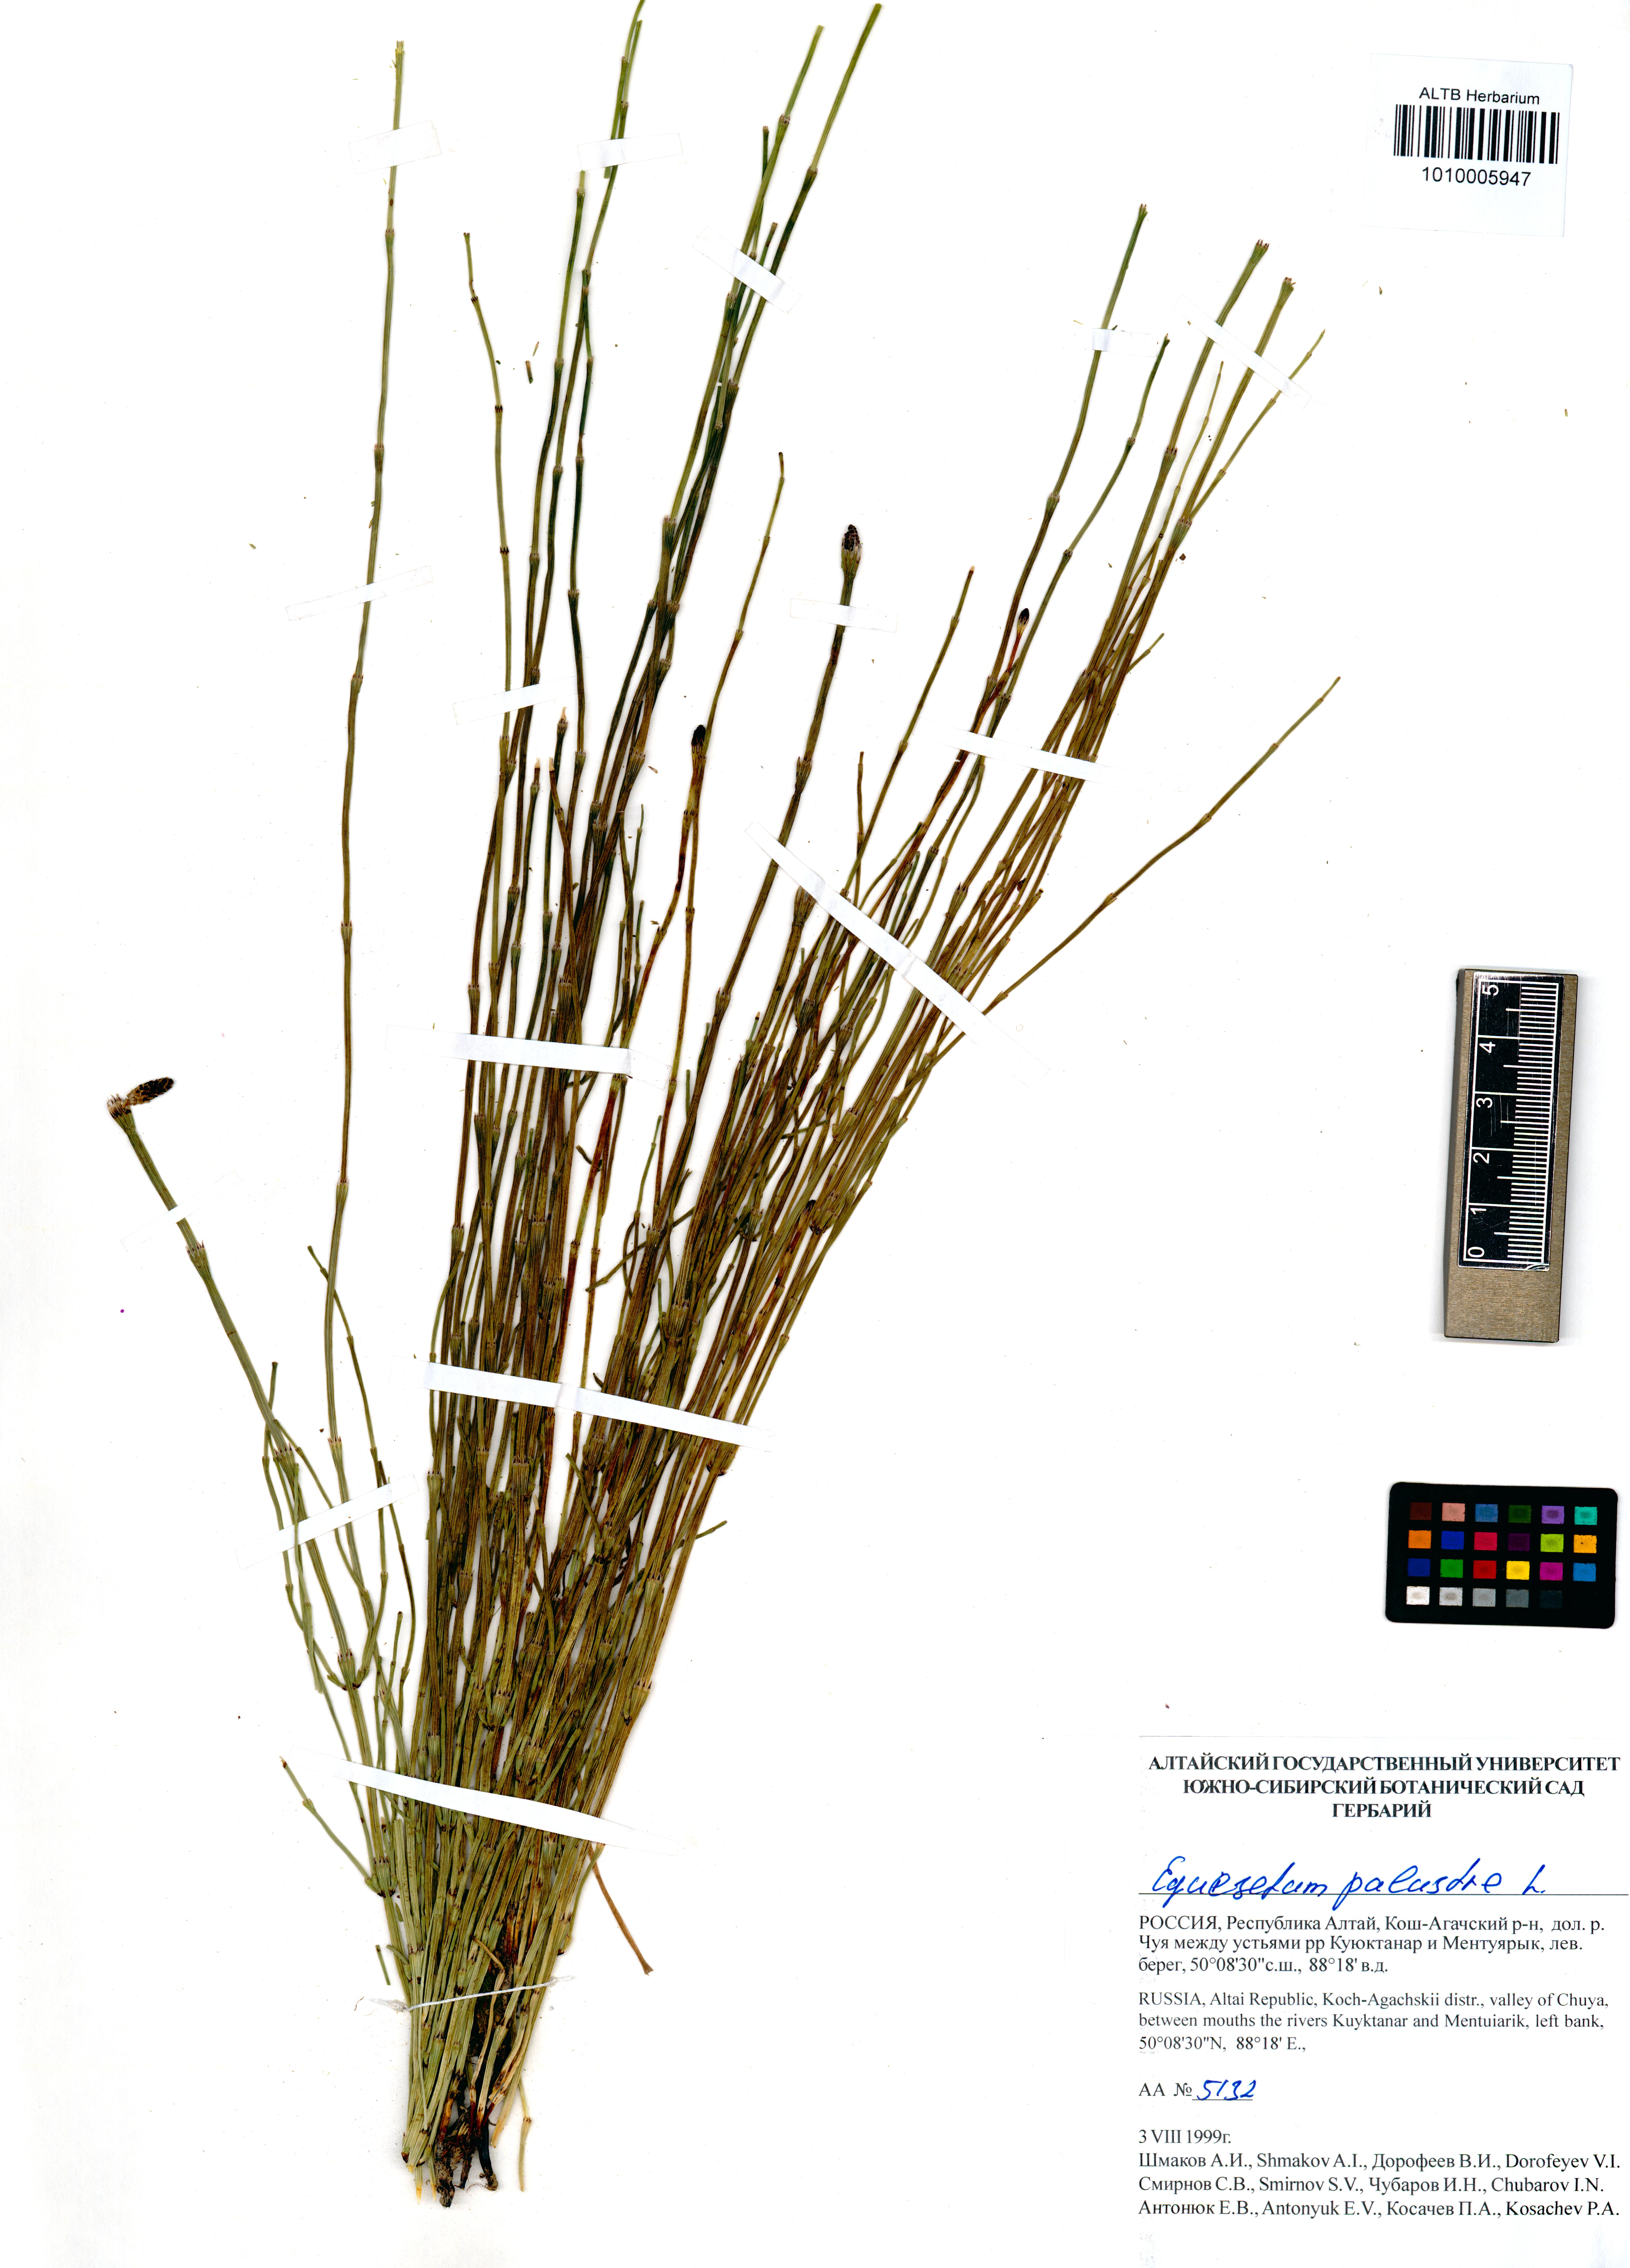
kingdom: Plantae
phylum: Tracheophyta
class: Polypodiopsida
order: Equisetales
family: Equisetaceae
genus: Equisetum
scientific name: Equisetum palustre
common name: Marsh horsetail
